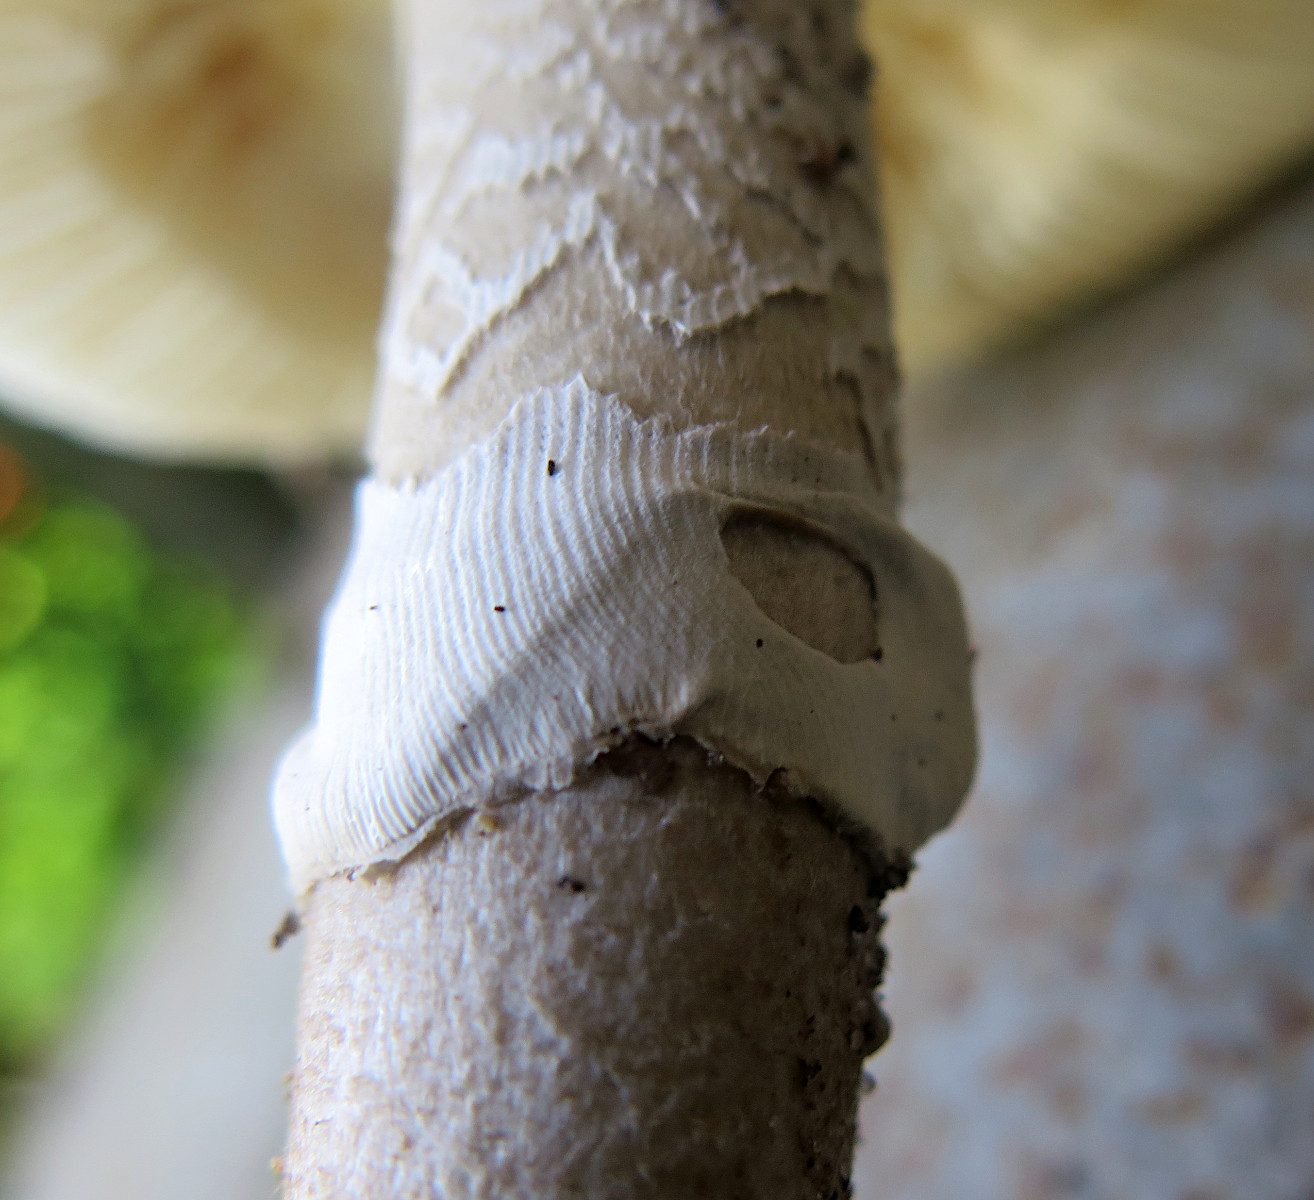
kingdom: Fungi
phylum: Basidiomycota
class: Agaricomycetes
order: Agaricales
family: Amanitaceae
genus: Amanita
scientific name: Amanita
